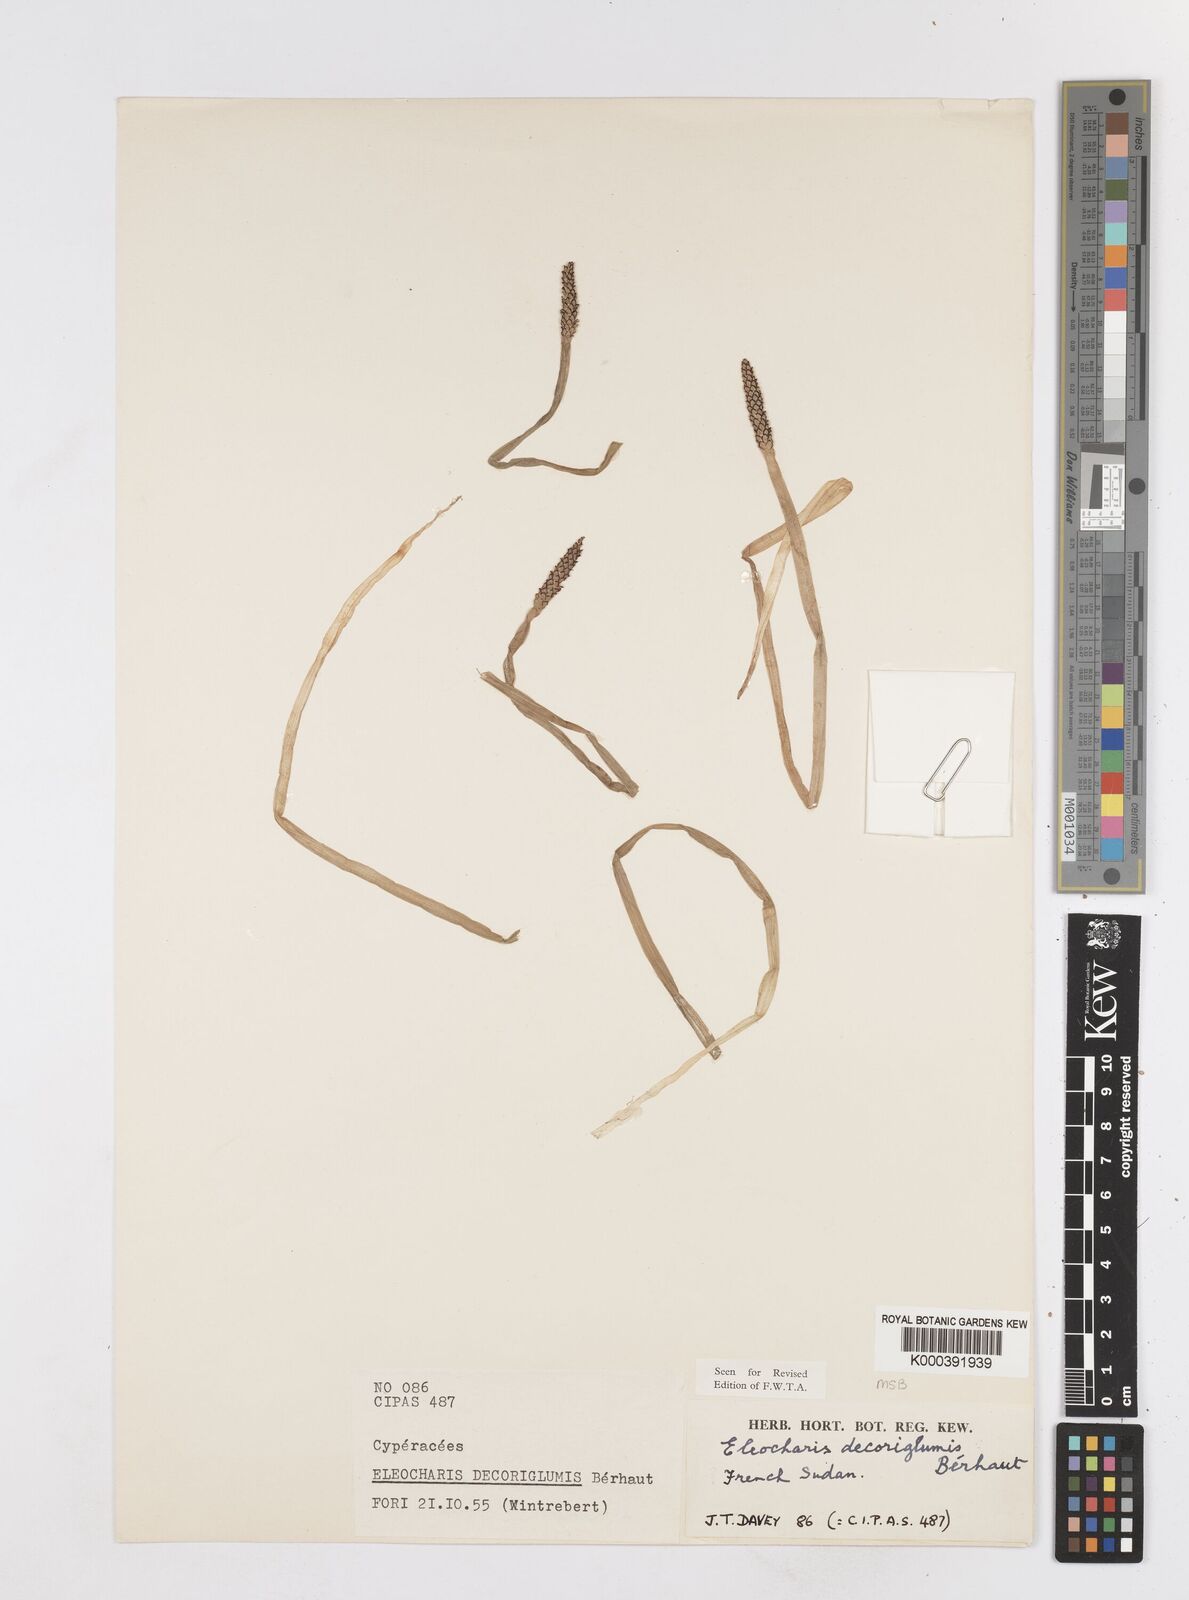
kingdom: Plantae
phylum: Tracheophyta
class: Liliopsida
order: Poales
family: Cyperaceae
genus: Eleocharis
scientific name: Eleocharis decoriglumis
